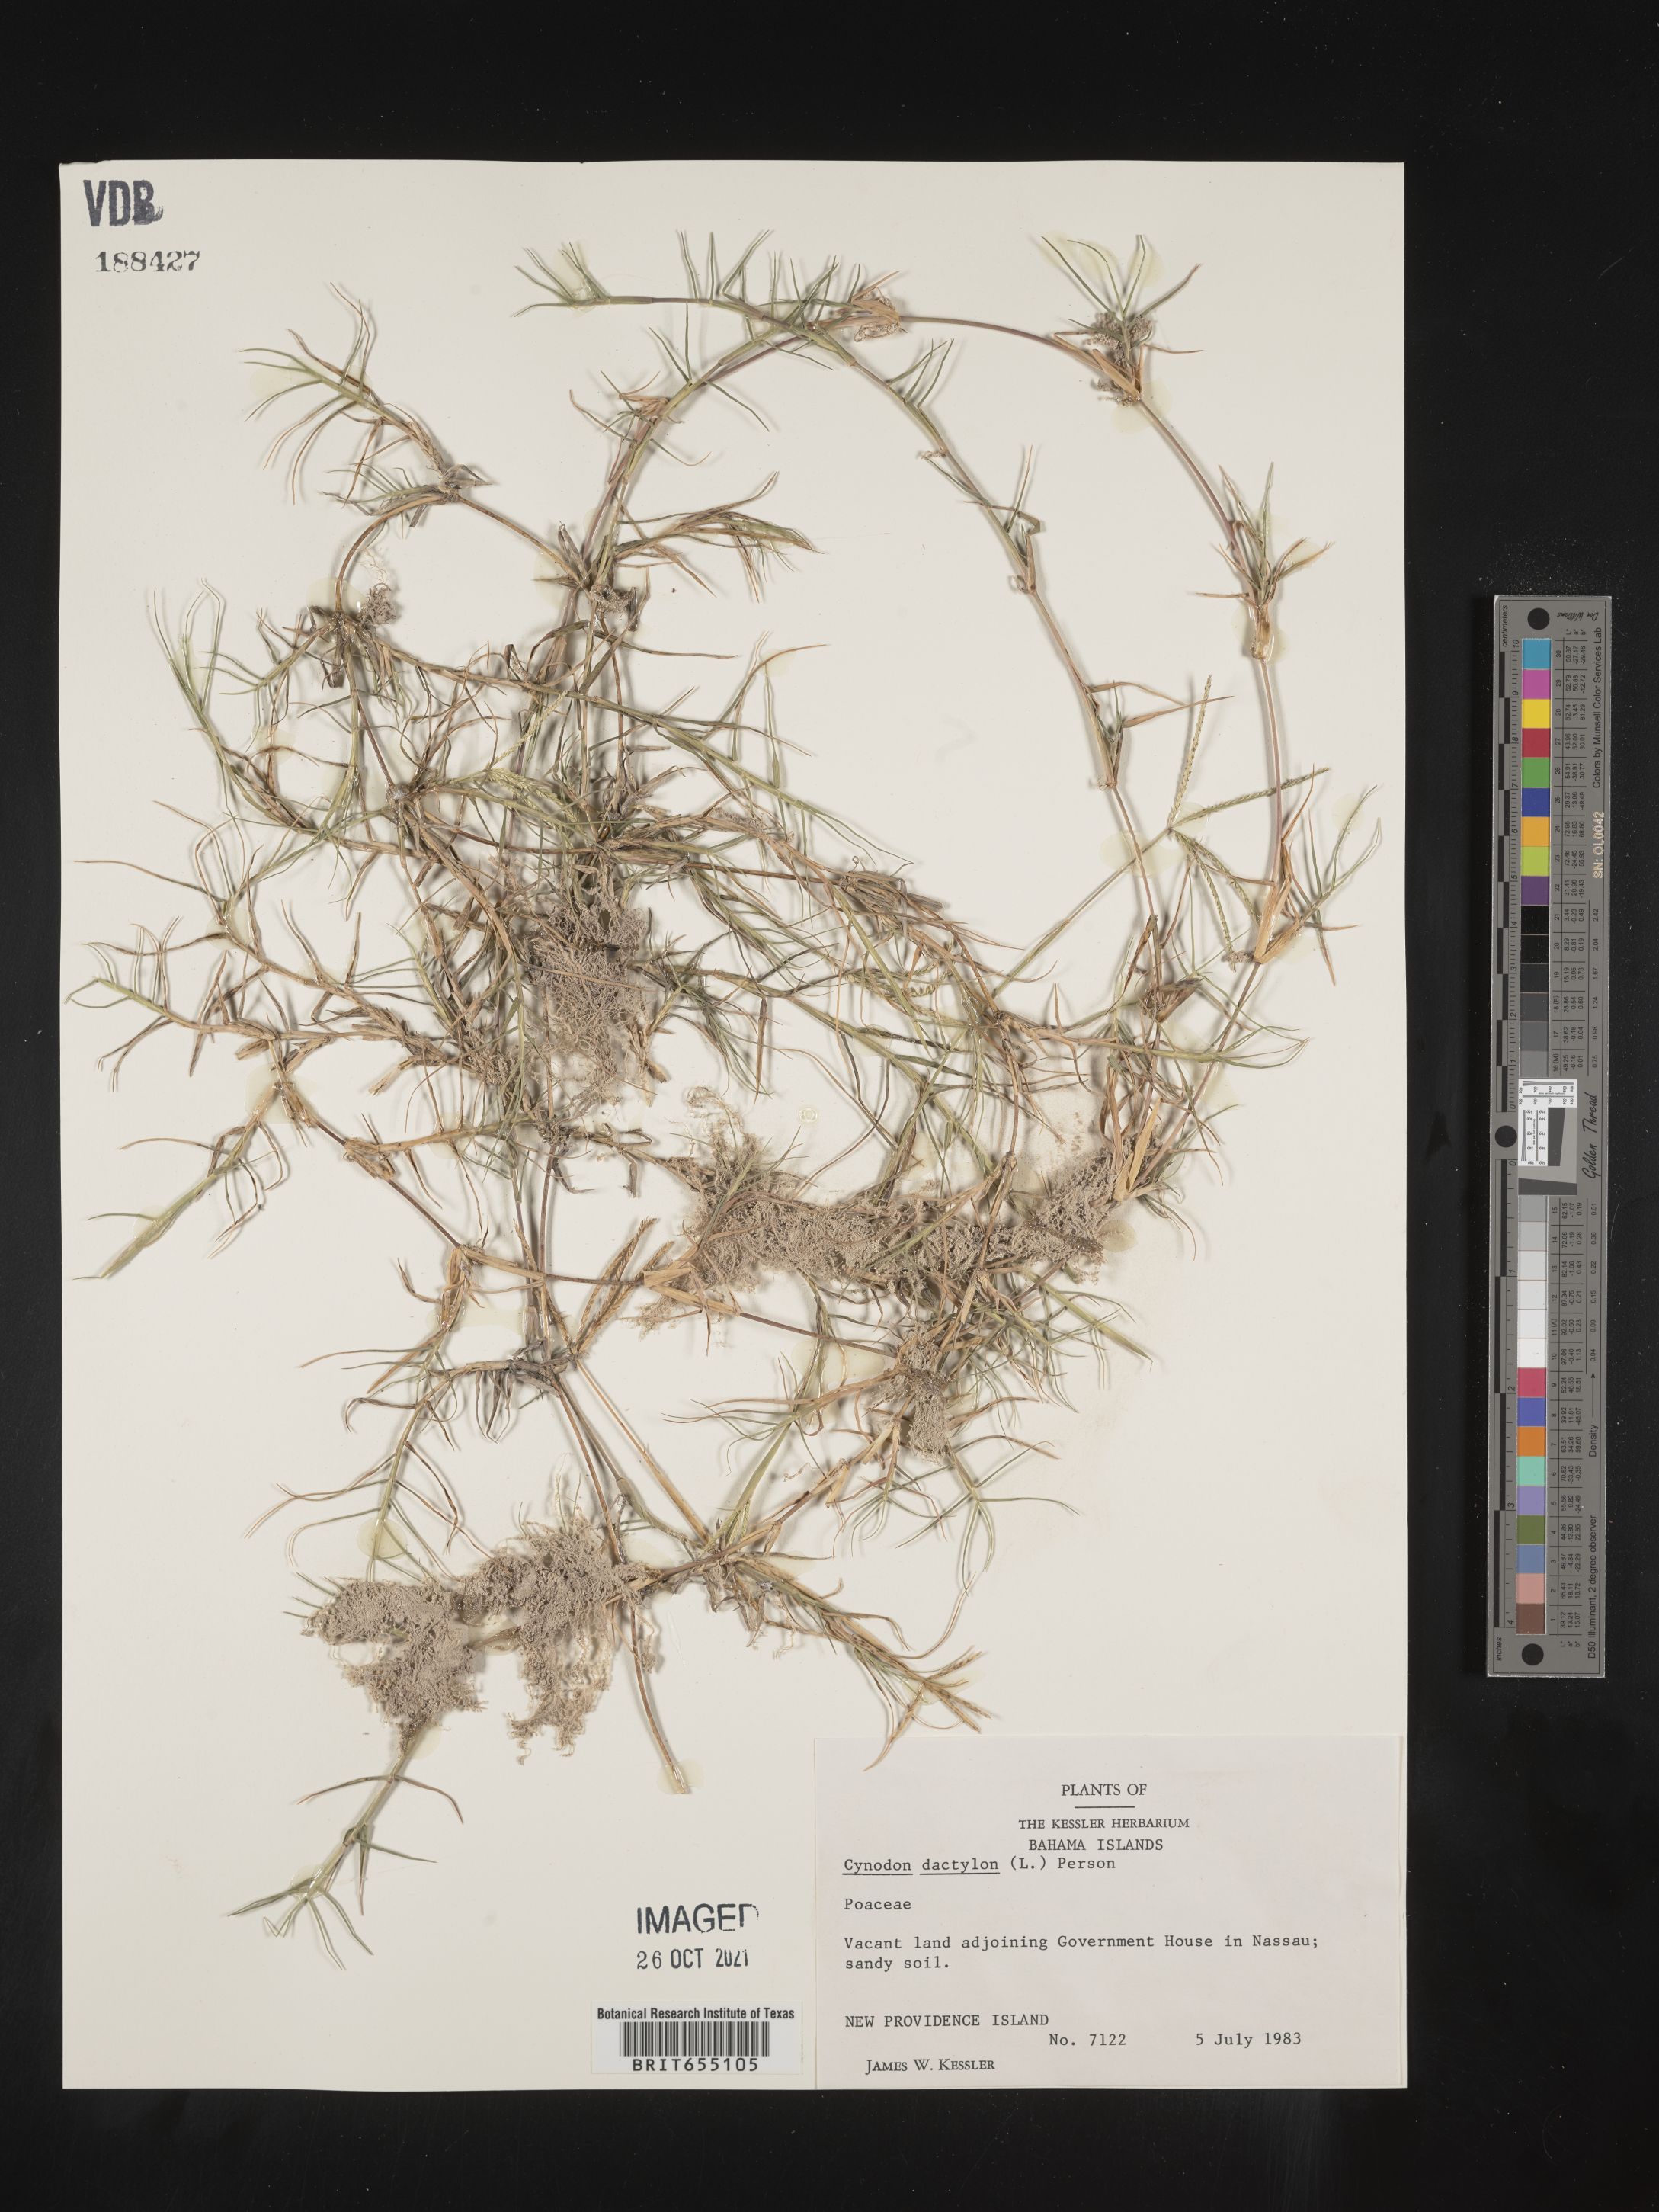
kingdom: Plantae
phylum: Tracheophyta
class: Liliopsida
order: Poales
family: Poaceae
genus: Cynodon
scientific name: Cynodon
